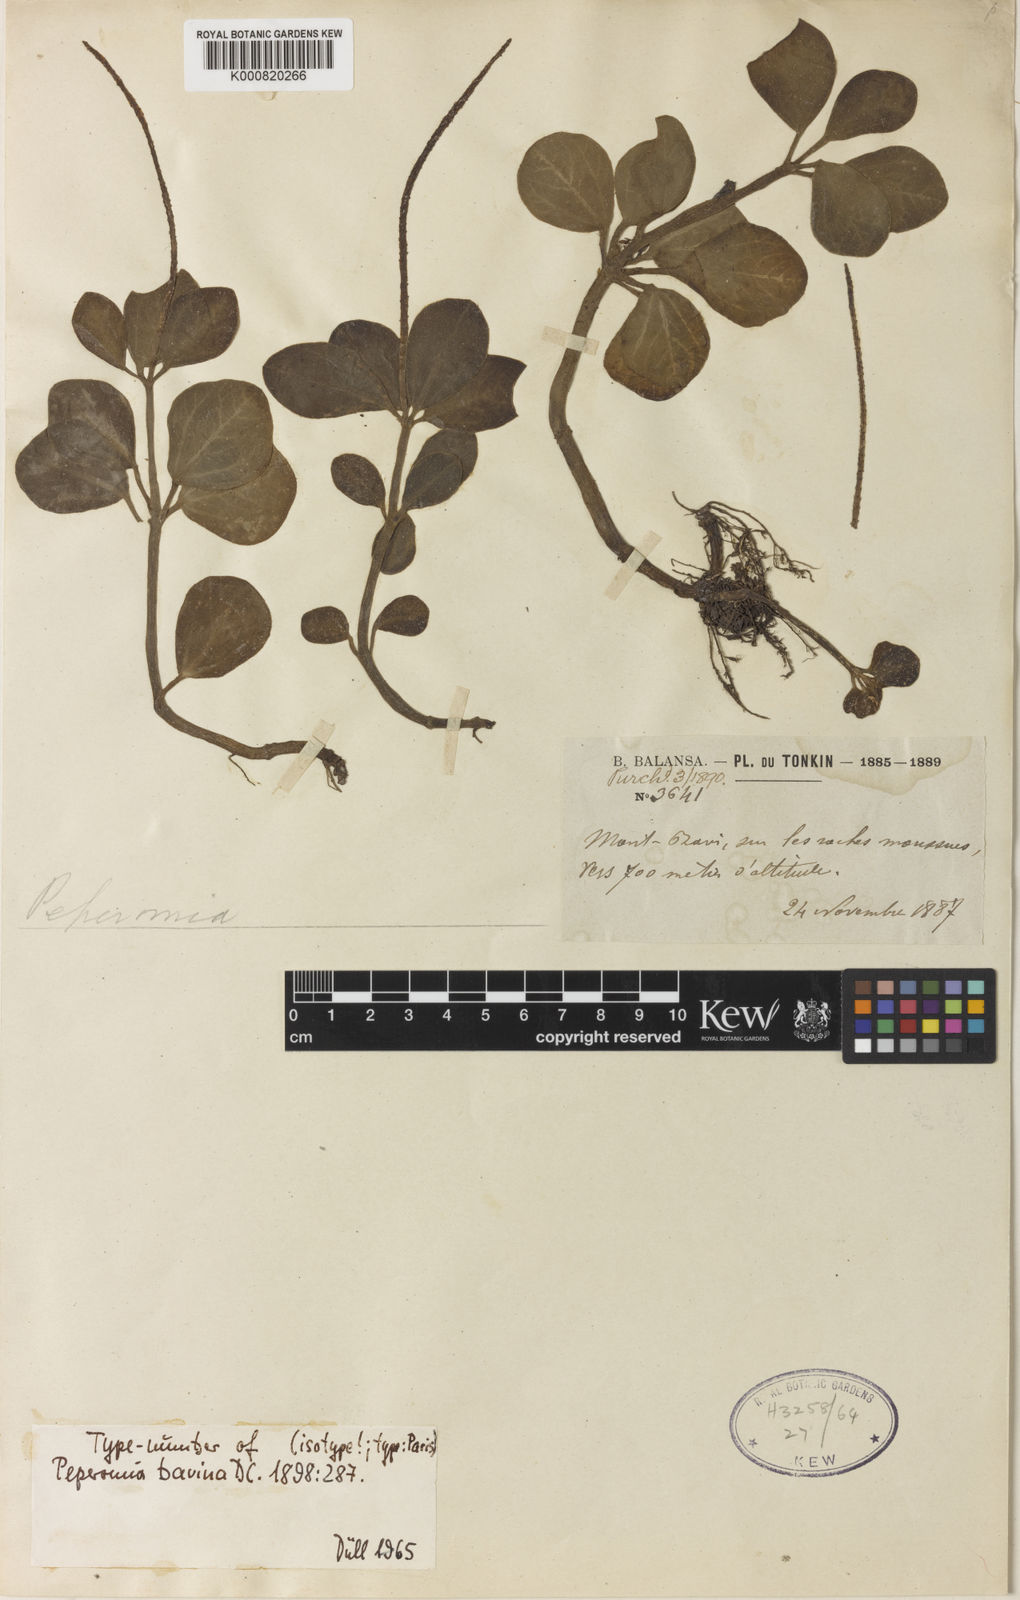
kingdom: Plantae
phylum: Tracheophyta
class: Magnoliopsida
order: Piperales
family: Piperaceae
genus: Peperomia
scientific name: Peperomia
